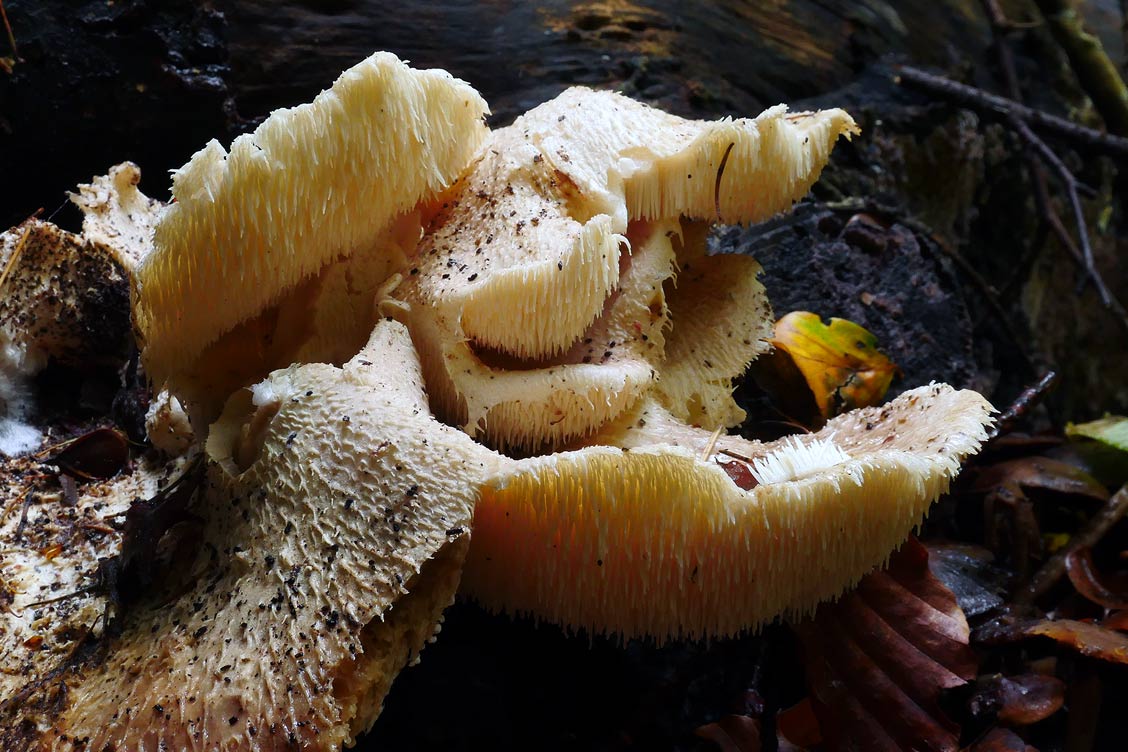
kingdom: Fungi
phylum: Basidiomycota
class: Agaricomycetes
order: Russulales
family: Hericiaceae
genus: Hericium
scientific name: Hericium cirrhatum
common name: børstepigsvamp
